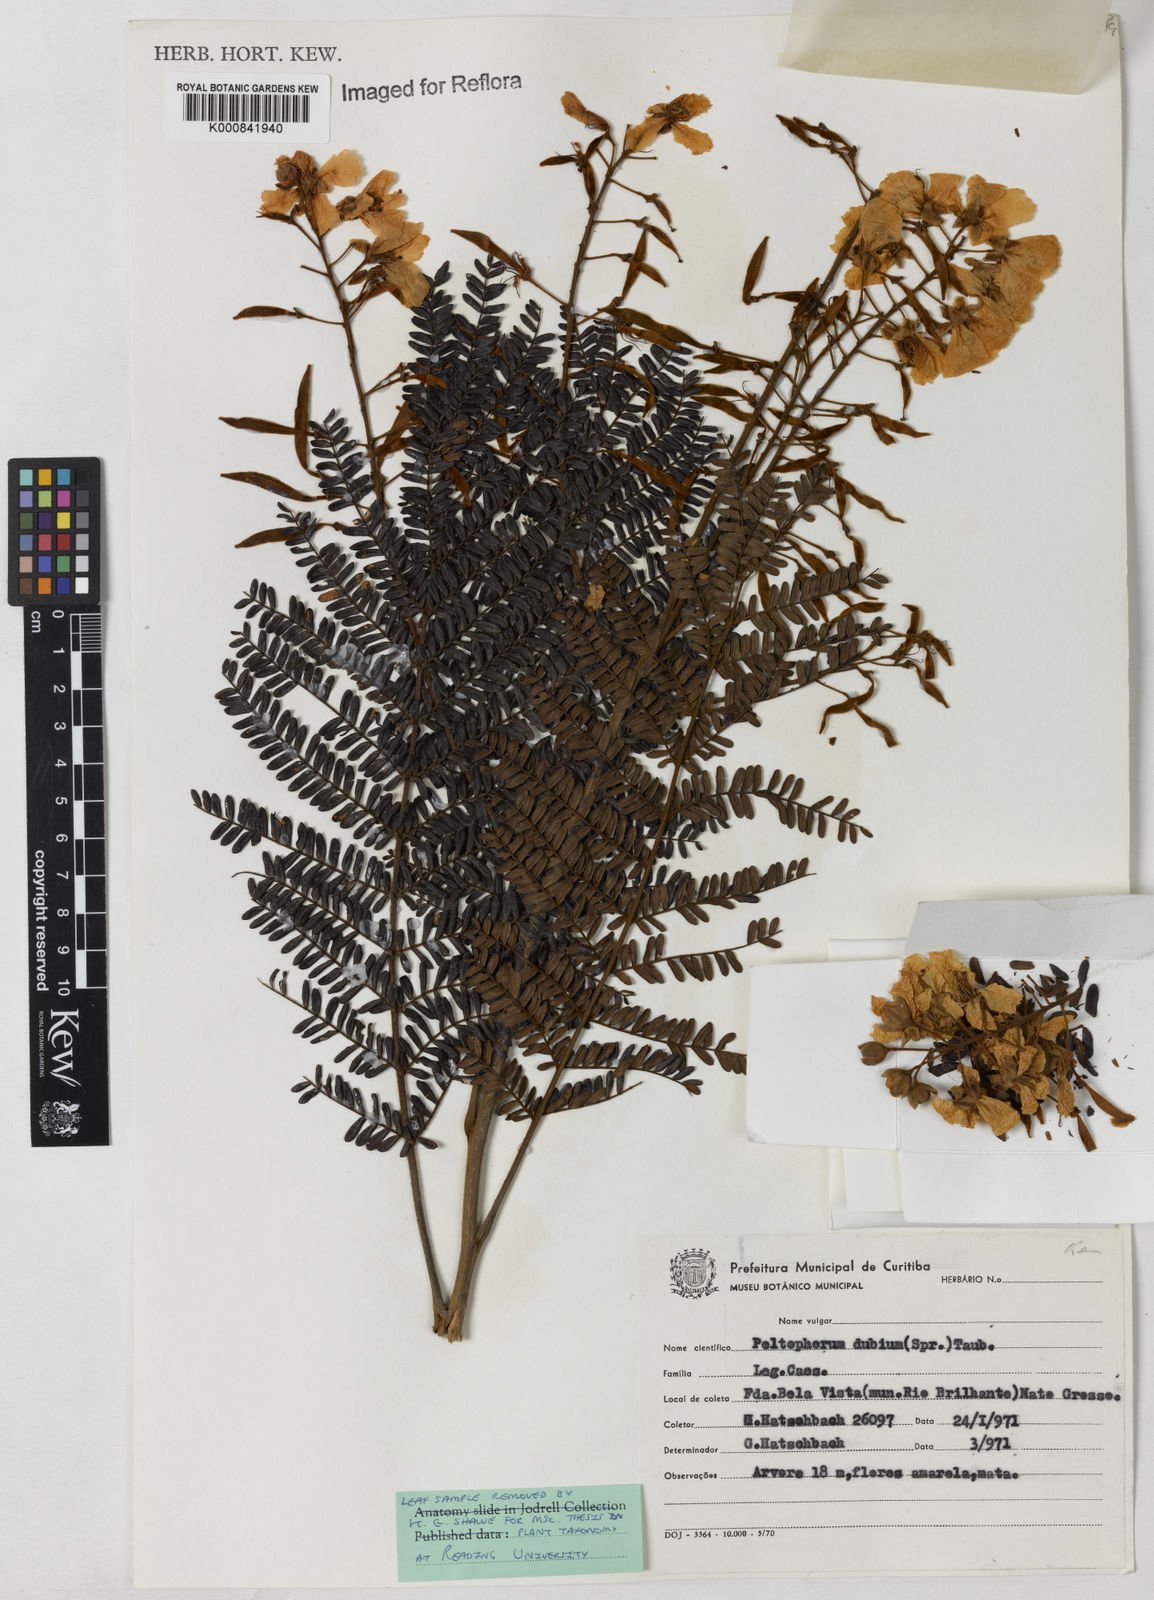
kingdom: Plantae
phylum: Tracheophyta
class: Magnoliopsida
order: Fabales
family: Fabaceae
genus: Peltophorum
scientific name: Peltophorum dubium
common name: Horsebush
